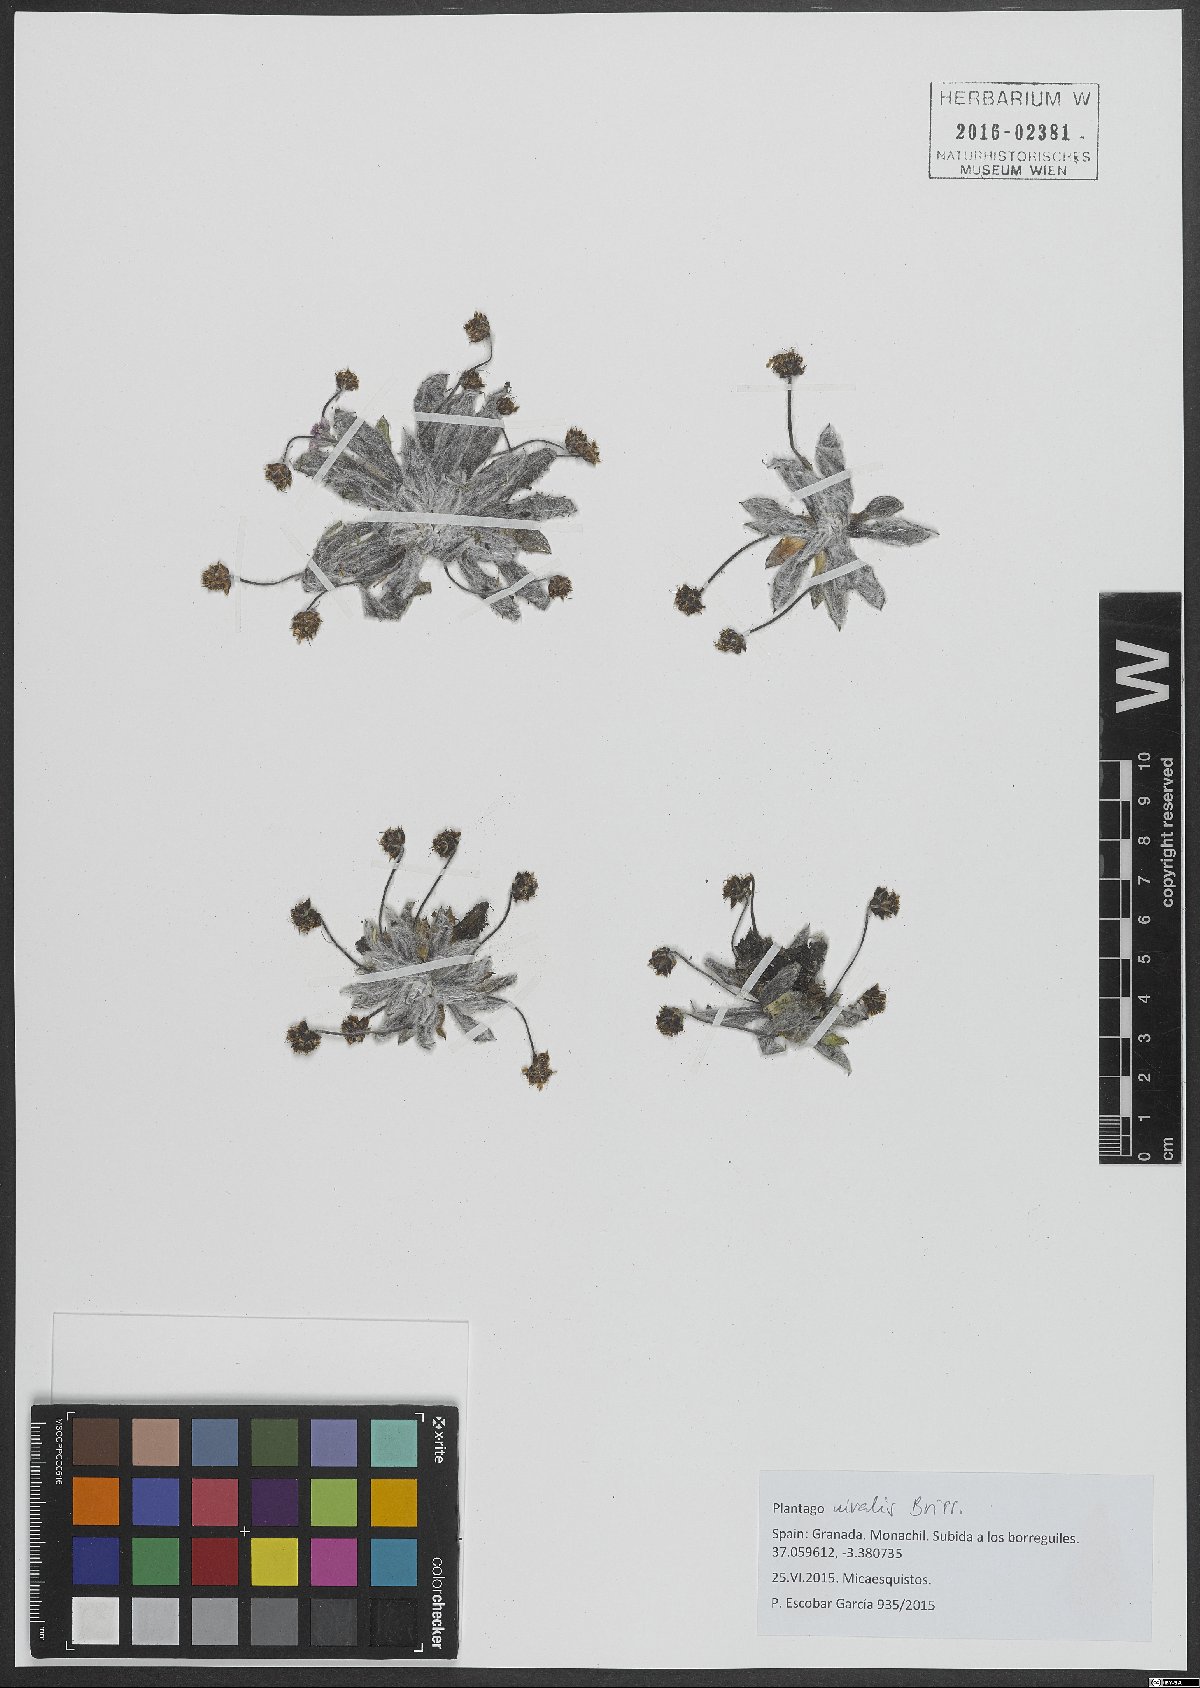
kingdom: Plantae
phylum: Tracheophyta
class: Magnoliopsida
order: Lamiales
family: Plantaginaceae
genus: Plantago
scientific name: Plantago nivalis
